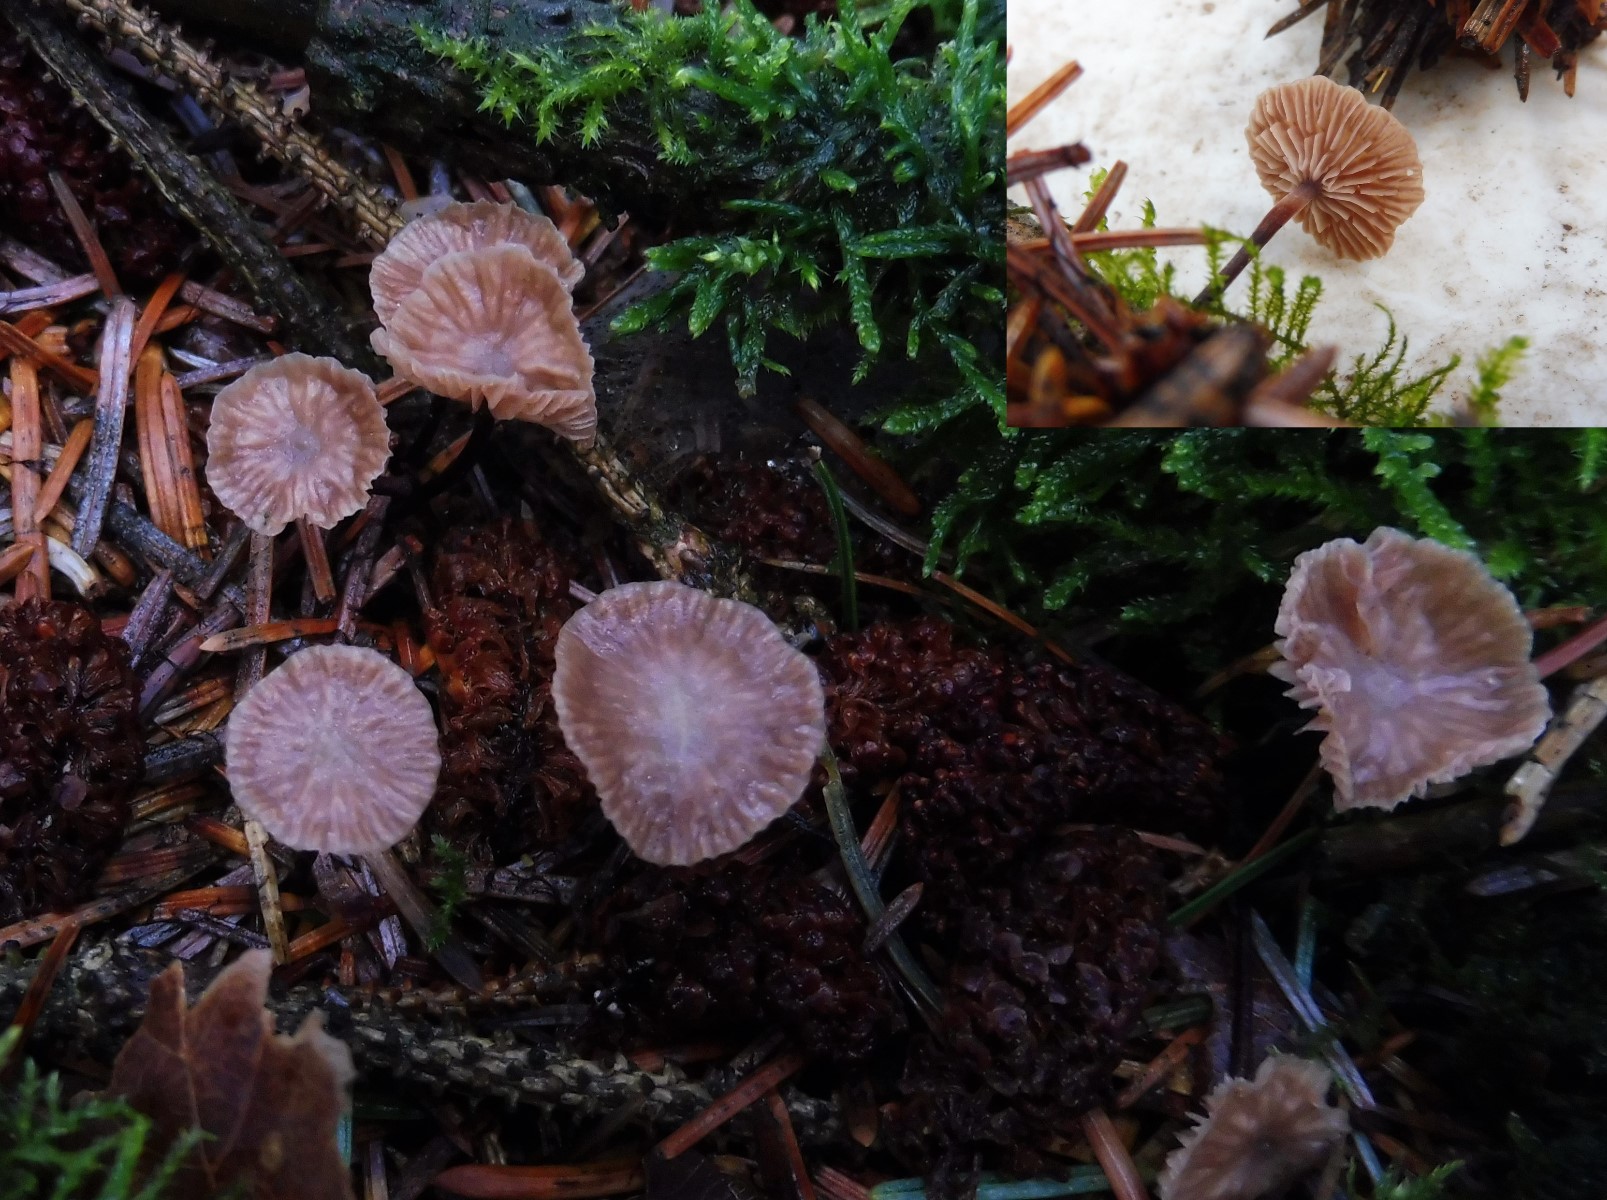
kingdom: Fungi
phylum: Basidiomycota
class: Agaricomycetes
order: Agaricales
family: Omphalotaceae
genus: Paragymnopus
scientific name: Paragymnopus perforans
